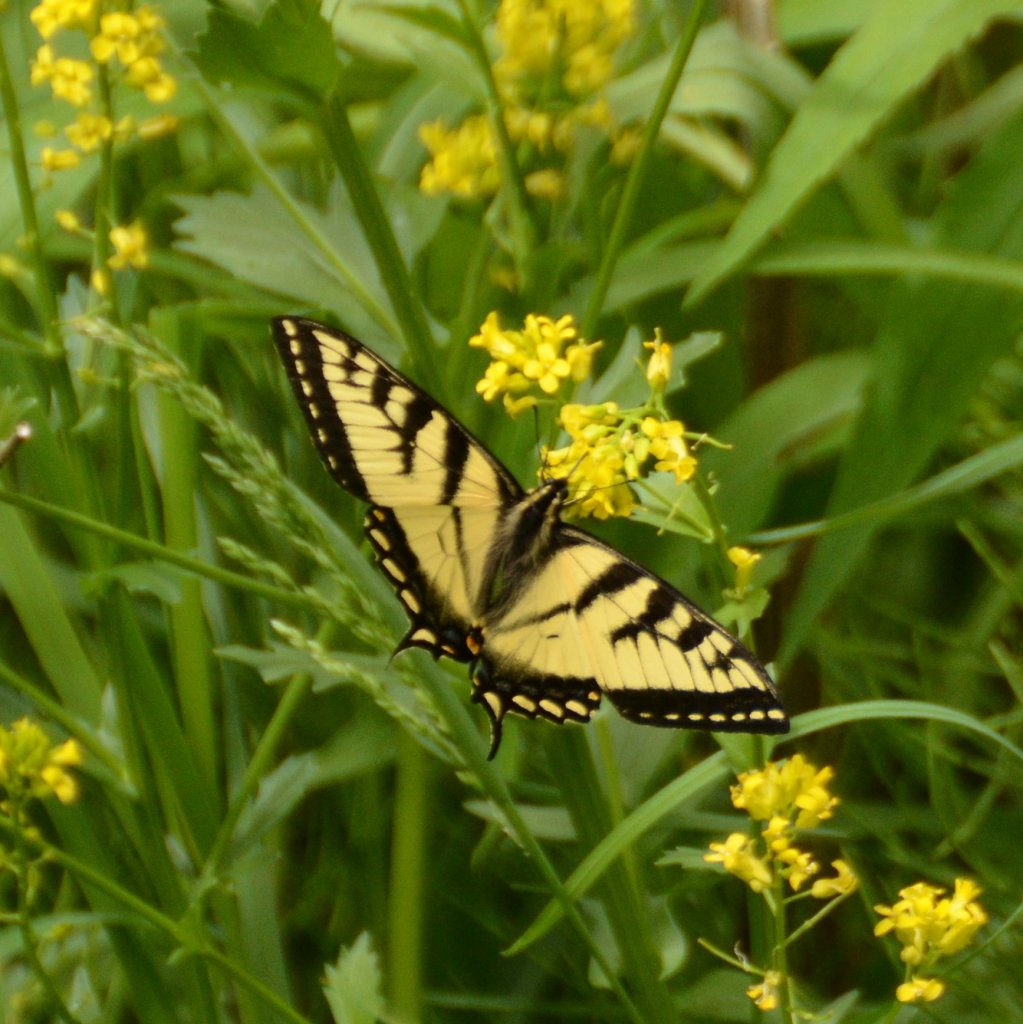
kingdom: Animalia
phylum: Arthropoda
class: Insecta
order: Lepidoptera
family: Papilionidae
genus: Pterourus
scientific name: Pterourus canadensis
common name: Canadian Tiger Swallowtail
